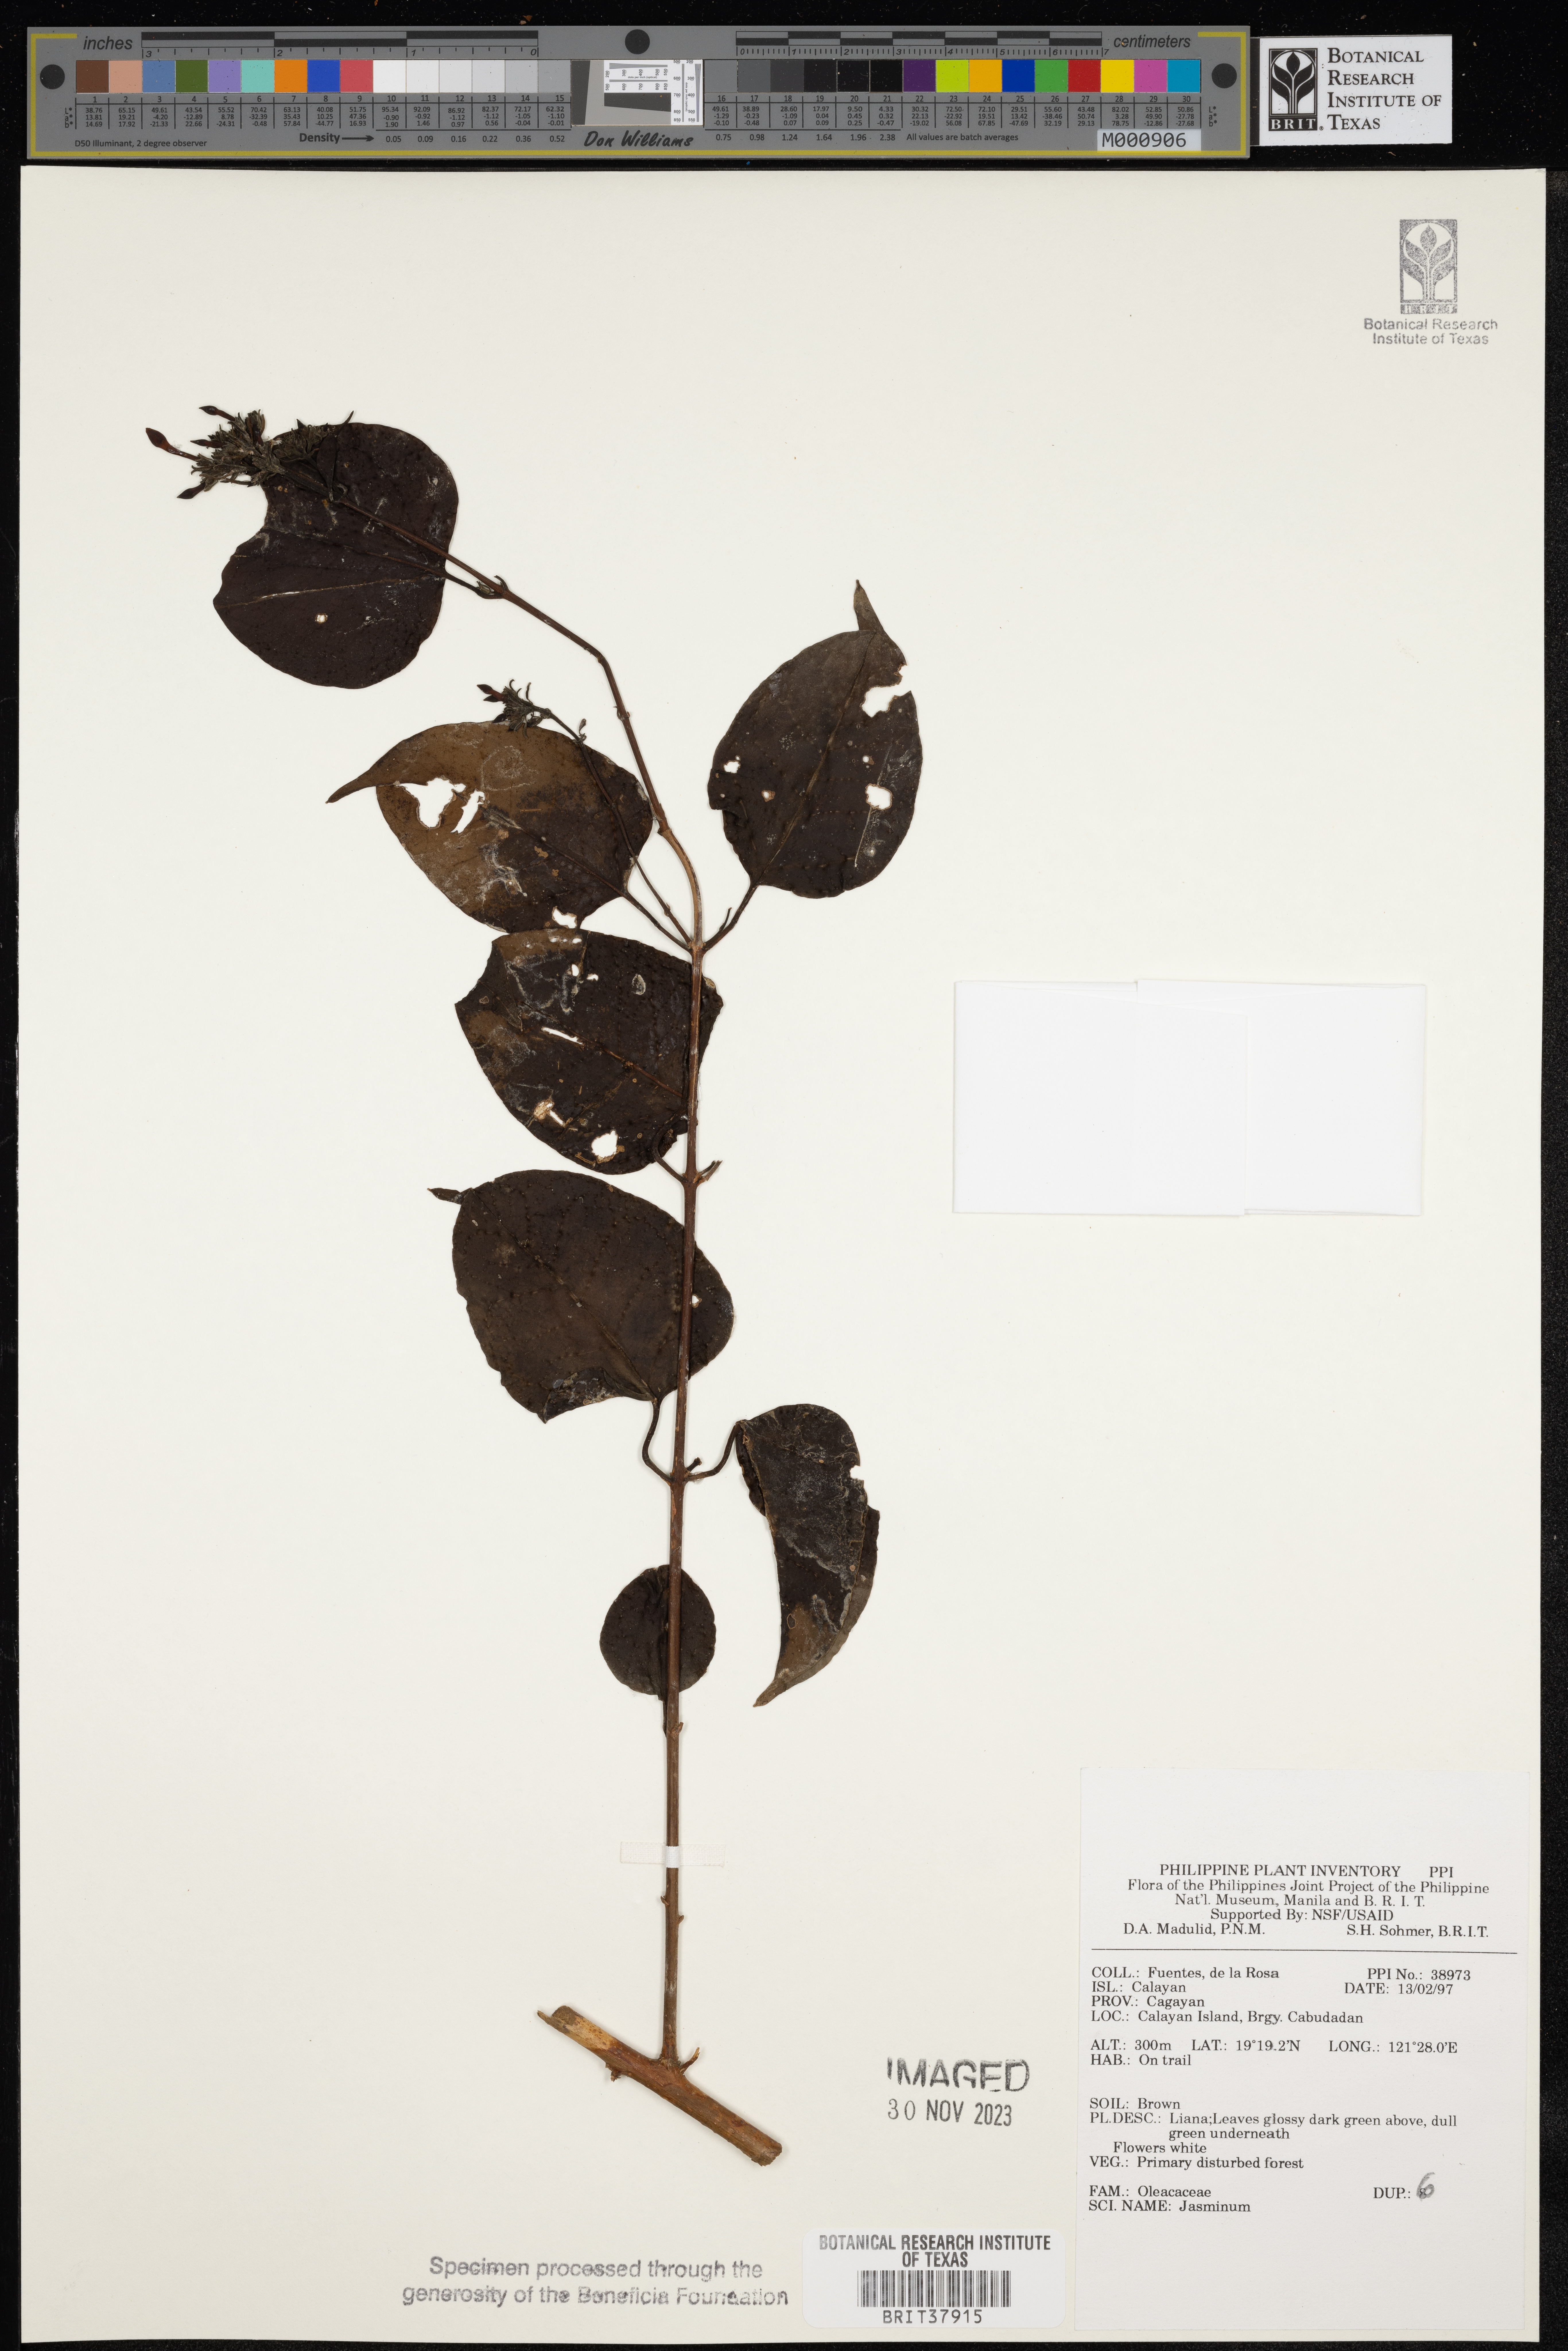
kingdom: Plantae
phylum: Tracheophyta
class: Magnoliopsida
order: Lamiales
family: Oleaceae
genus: Jasminum
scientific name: Jasminum
